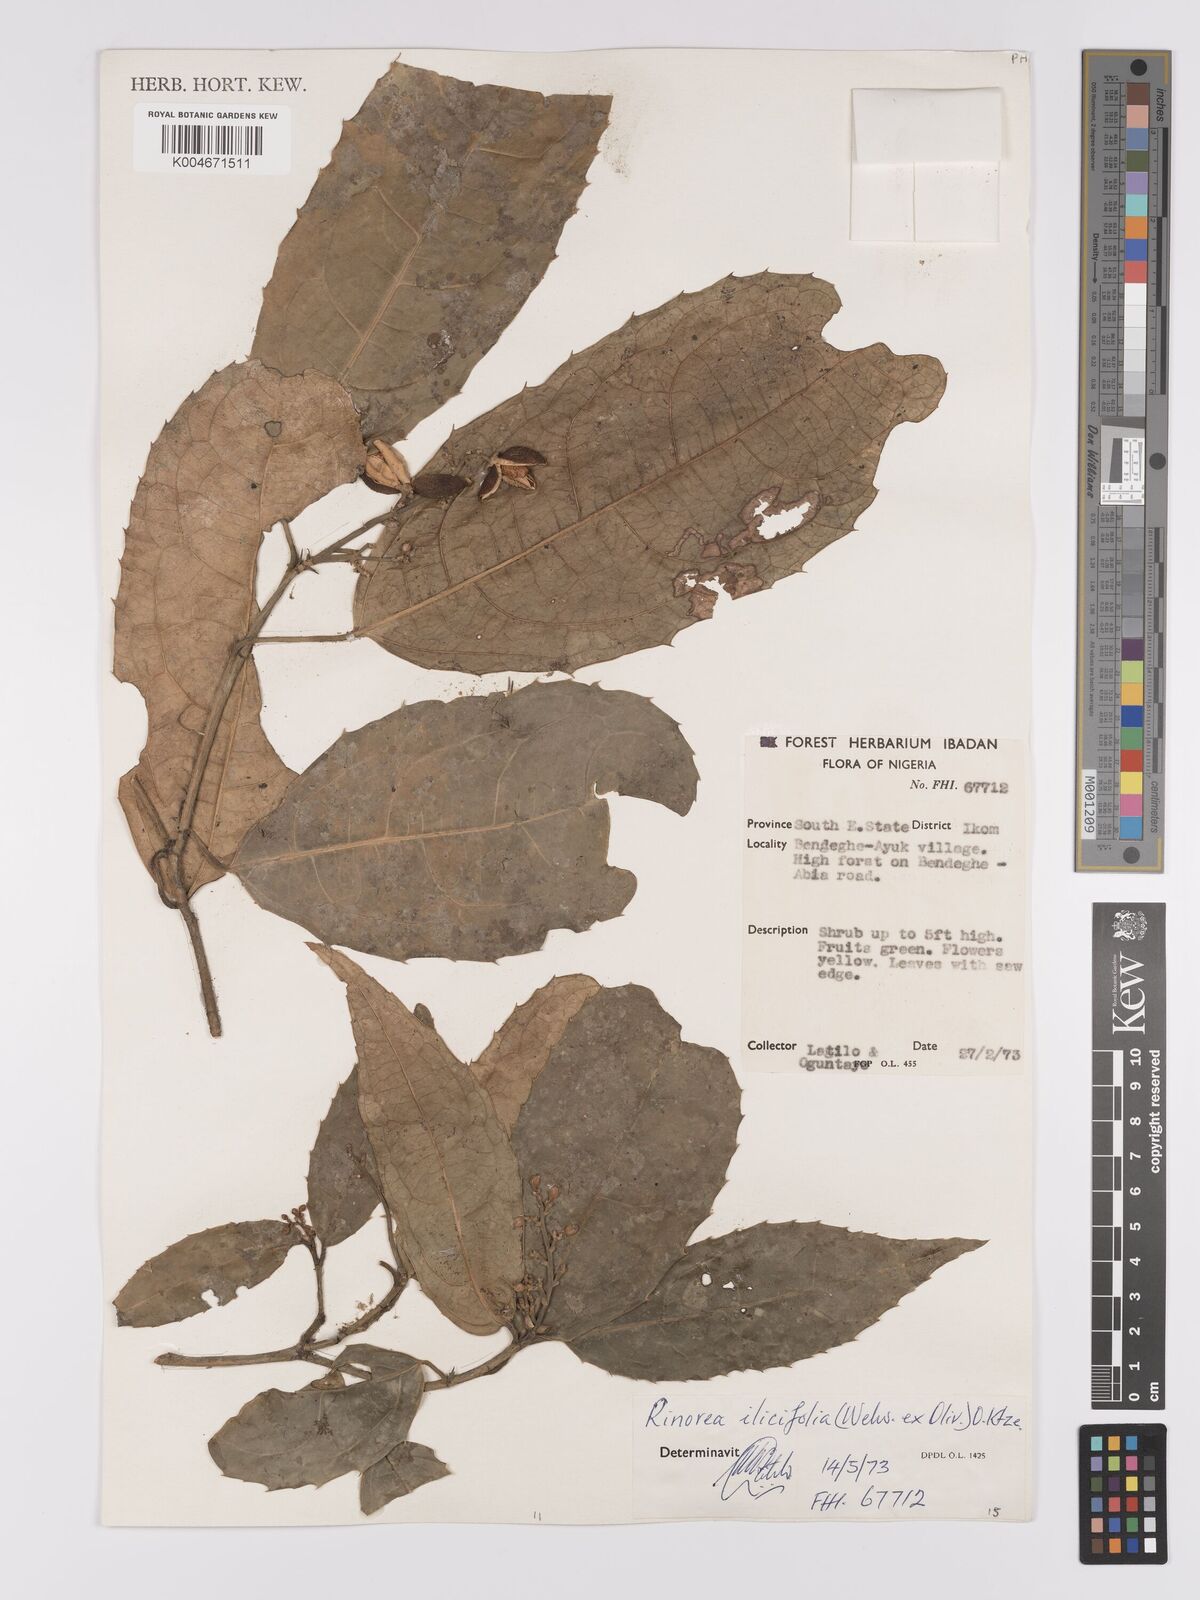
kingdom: Plantae
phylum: Tracheophyta
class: Magnoliopsida
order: Malpighiales
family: Violaceae
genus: Rinorea
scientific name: Rinorea ilicifolia
